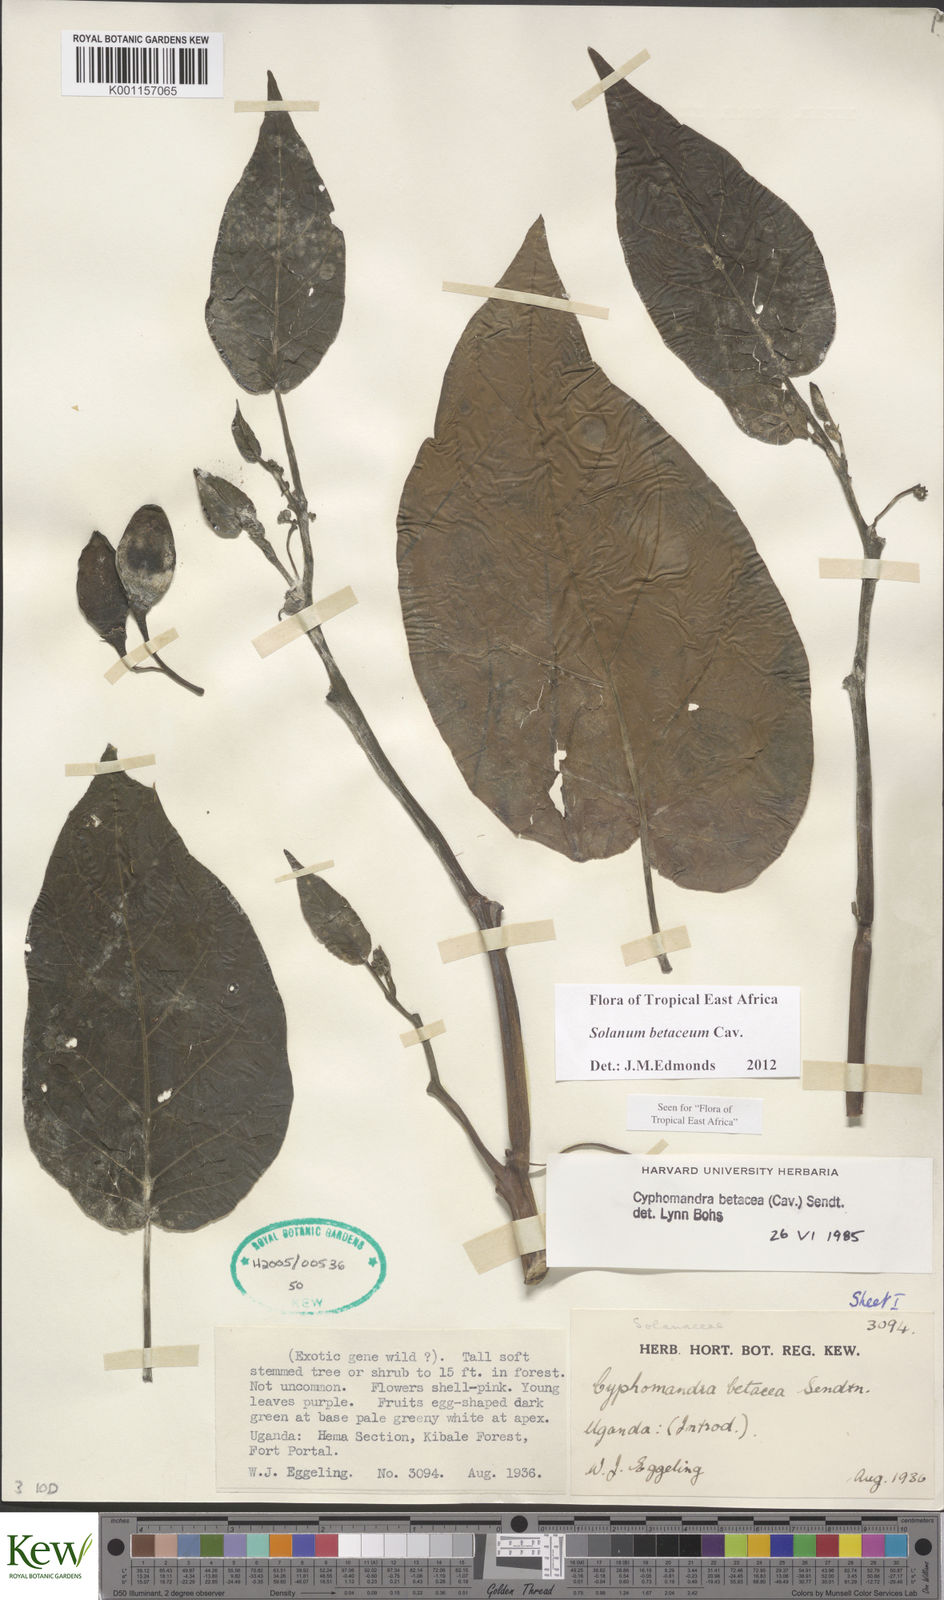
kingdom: Plantae
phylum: Tracheophyta
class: Magnoliopsida
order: Solanales
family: Solanaceae
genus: Solanum
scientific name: Solanum betaceum
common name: Tamarillo
